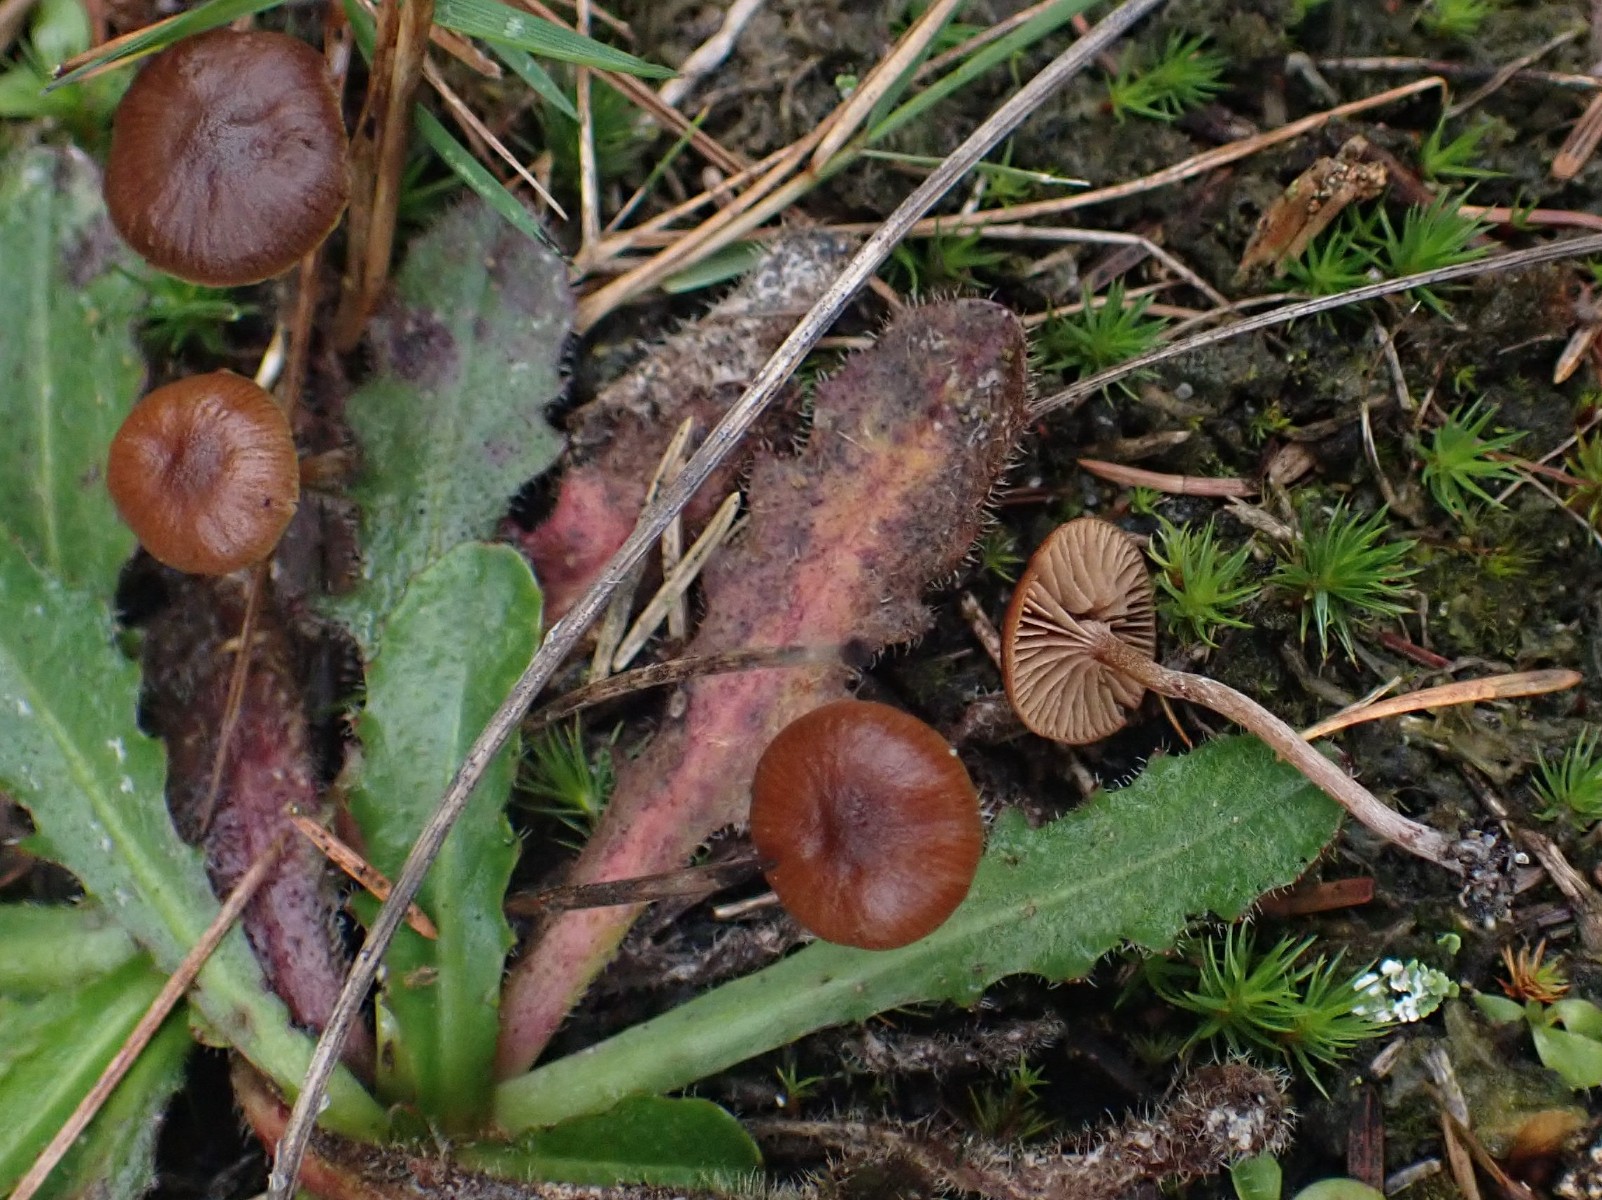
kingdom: Fungi
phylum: Basidiomycota
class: Agaricomycetes
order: Agaricales
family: Strophariaceae
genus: Deconica
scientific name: Deconica montana
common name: rødbrun stråhat
